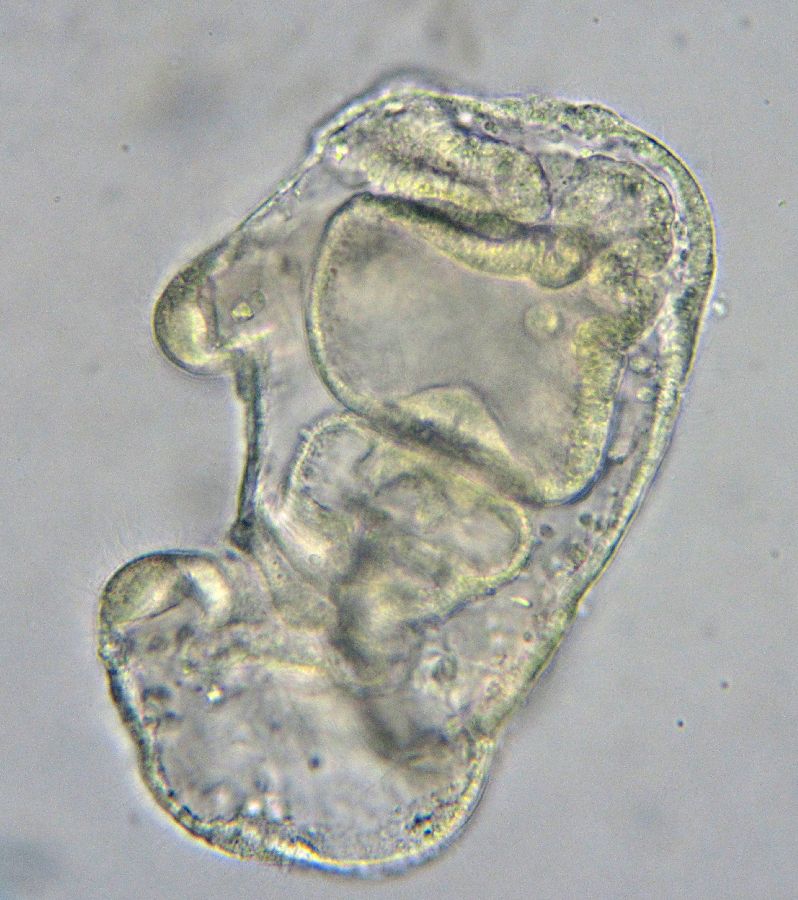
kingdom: Animalia
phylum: Echinodermata
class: Asteroidea
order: Forcipulatida
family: Asteriidae
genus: Asterias
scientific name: Asterias rubens
